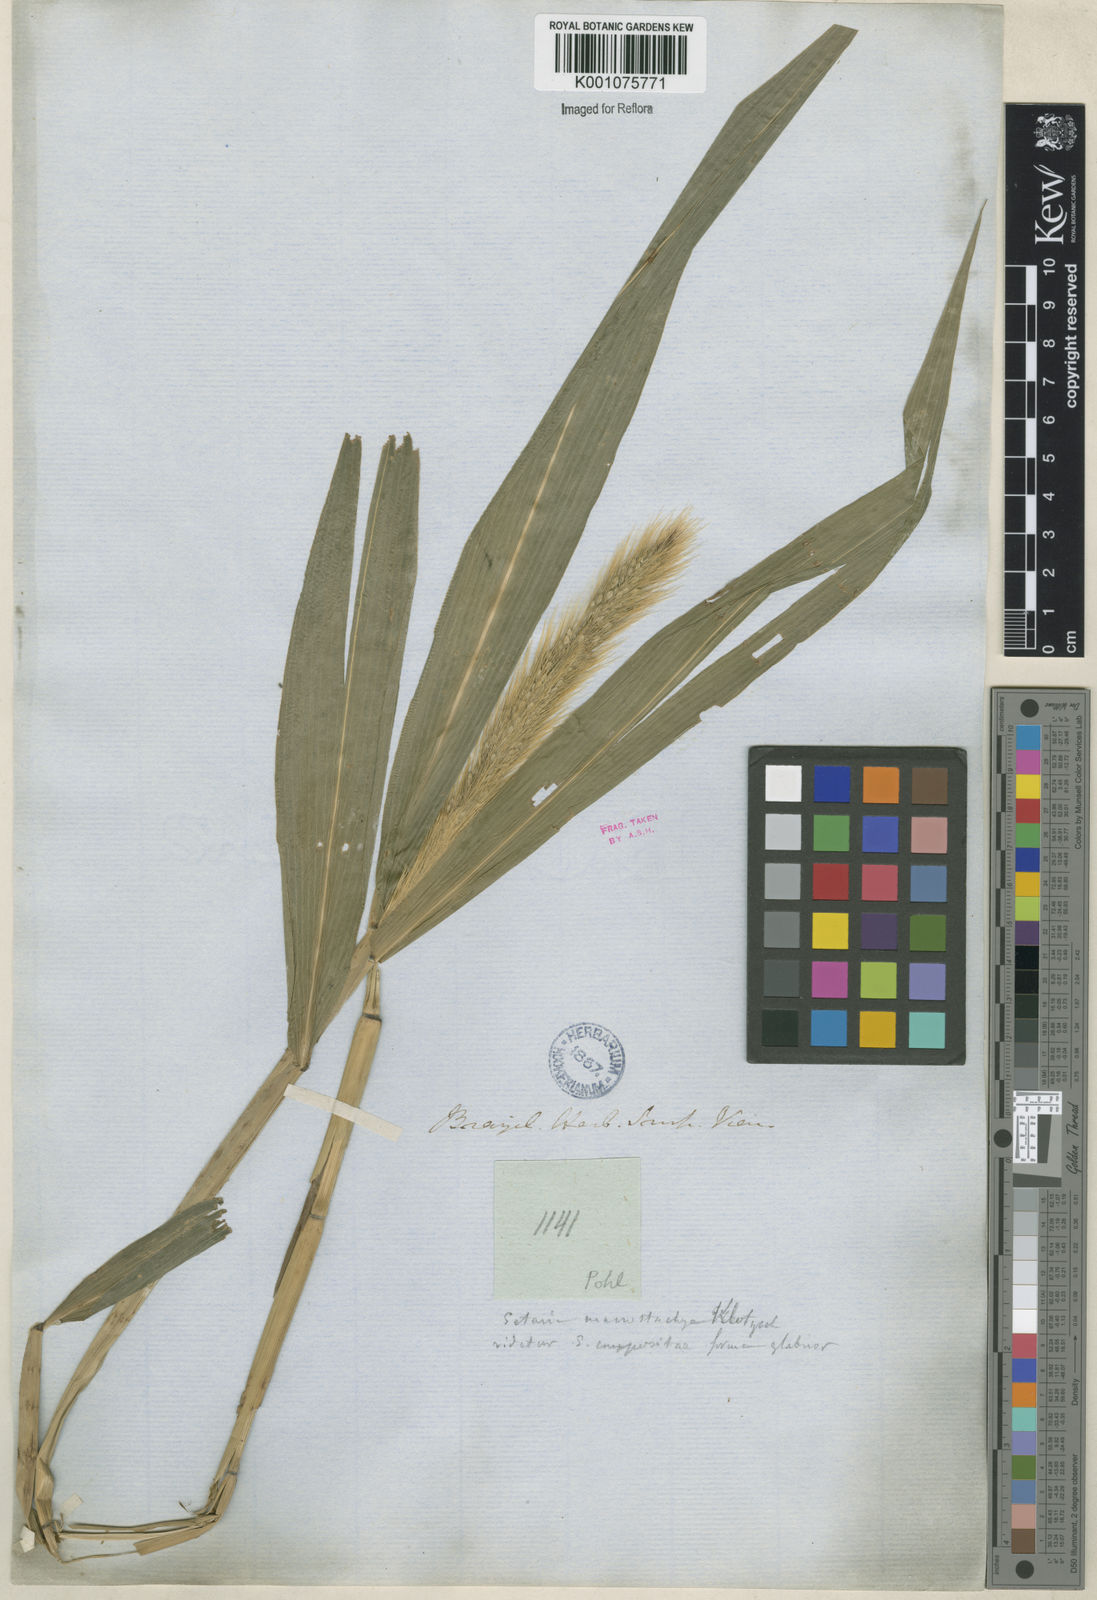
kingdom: Plantae
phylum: Tracheophyta
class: Liliopsida
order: Poales
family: Poaceae
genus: Setaria
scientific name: Setaria vulpiseta
